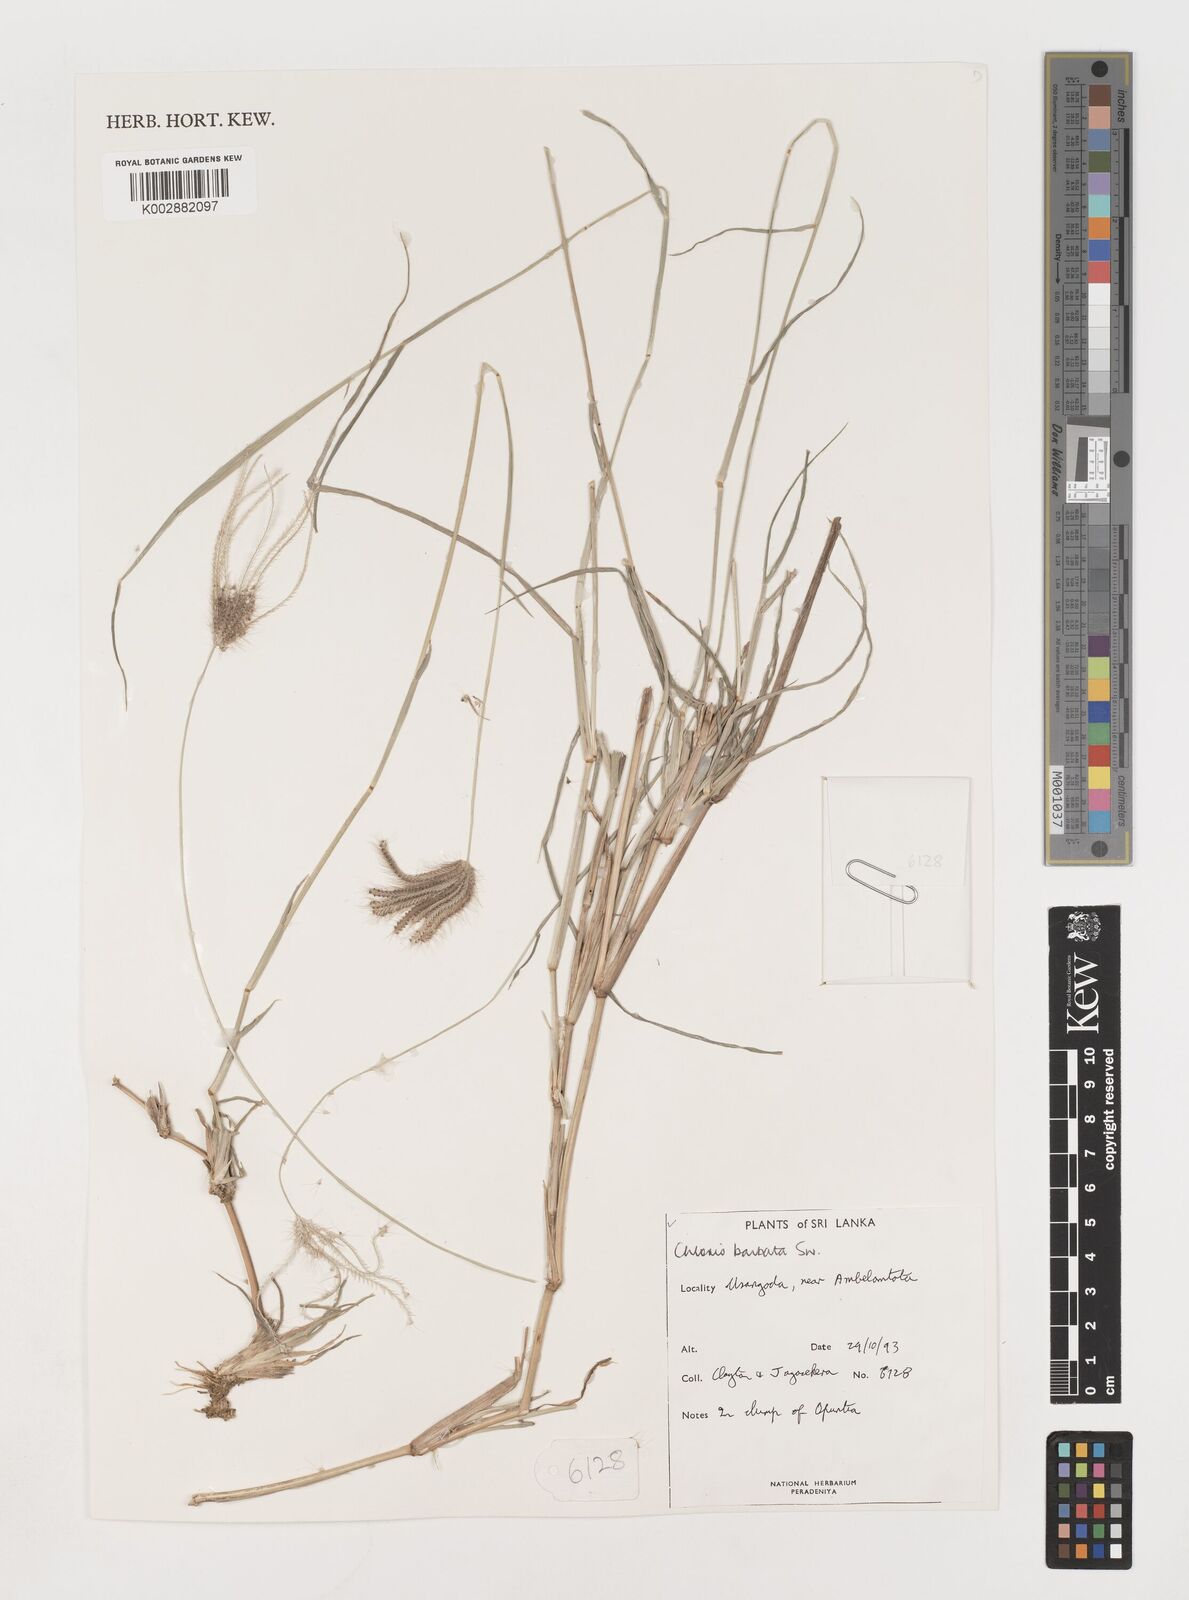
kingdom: Plantae
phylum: Tracheophyta
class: Liliopsida
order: Poales
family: Poaceae
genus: Chloris
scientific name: Chloris barbata
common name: Swollen fingergrass
